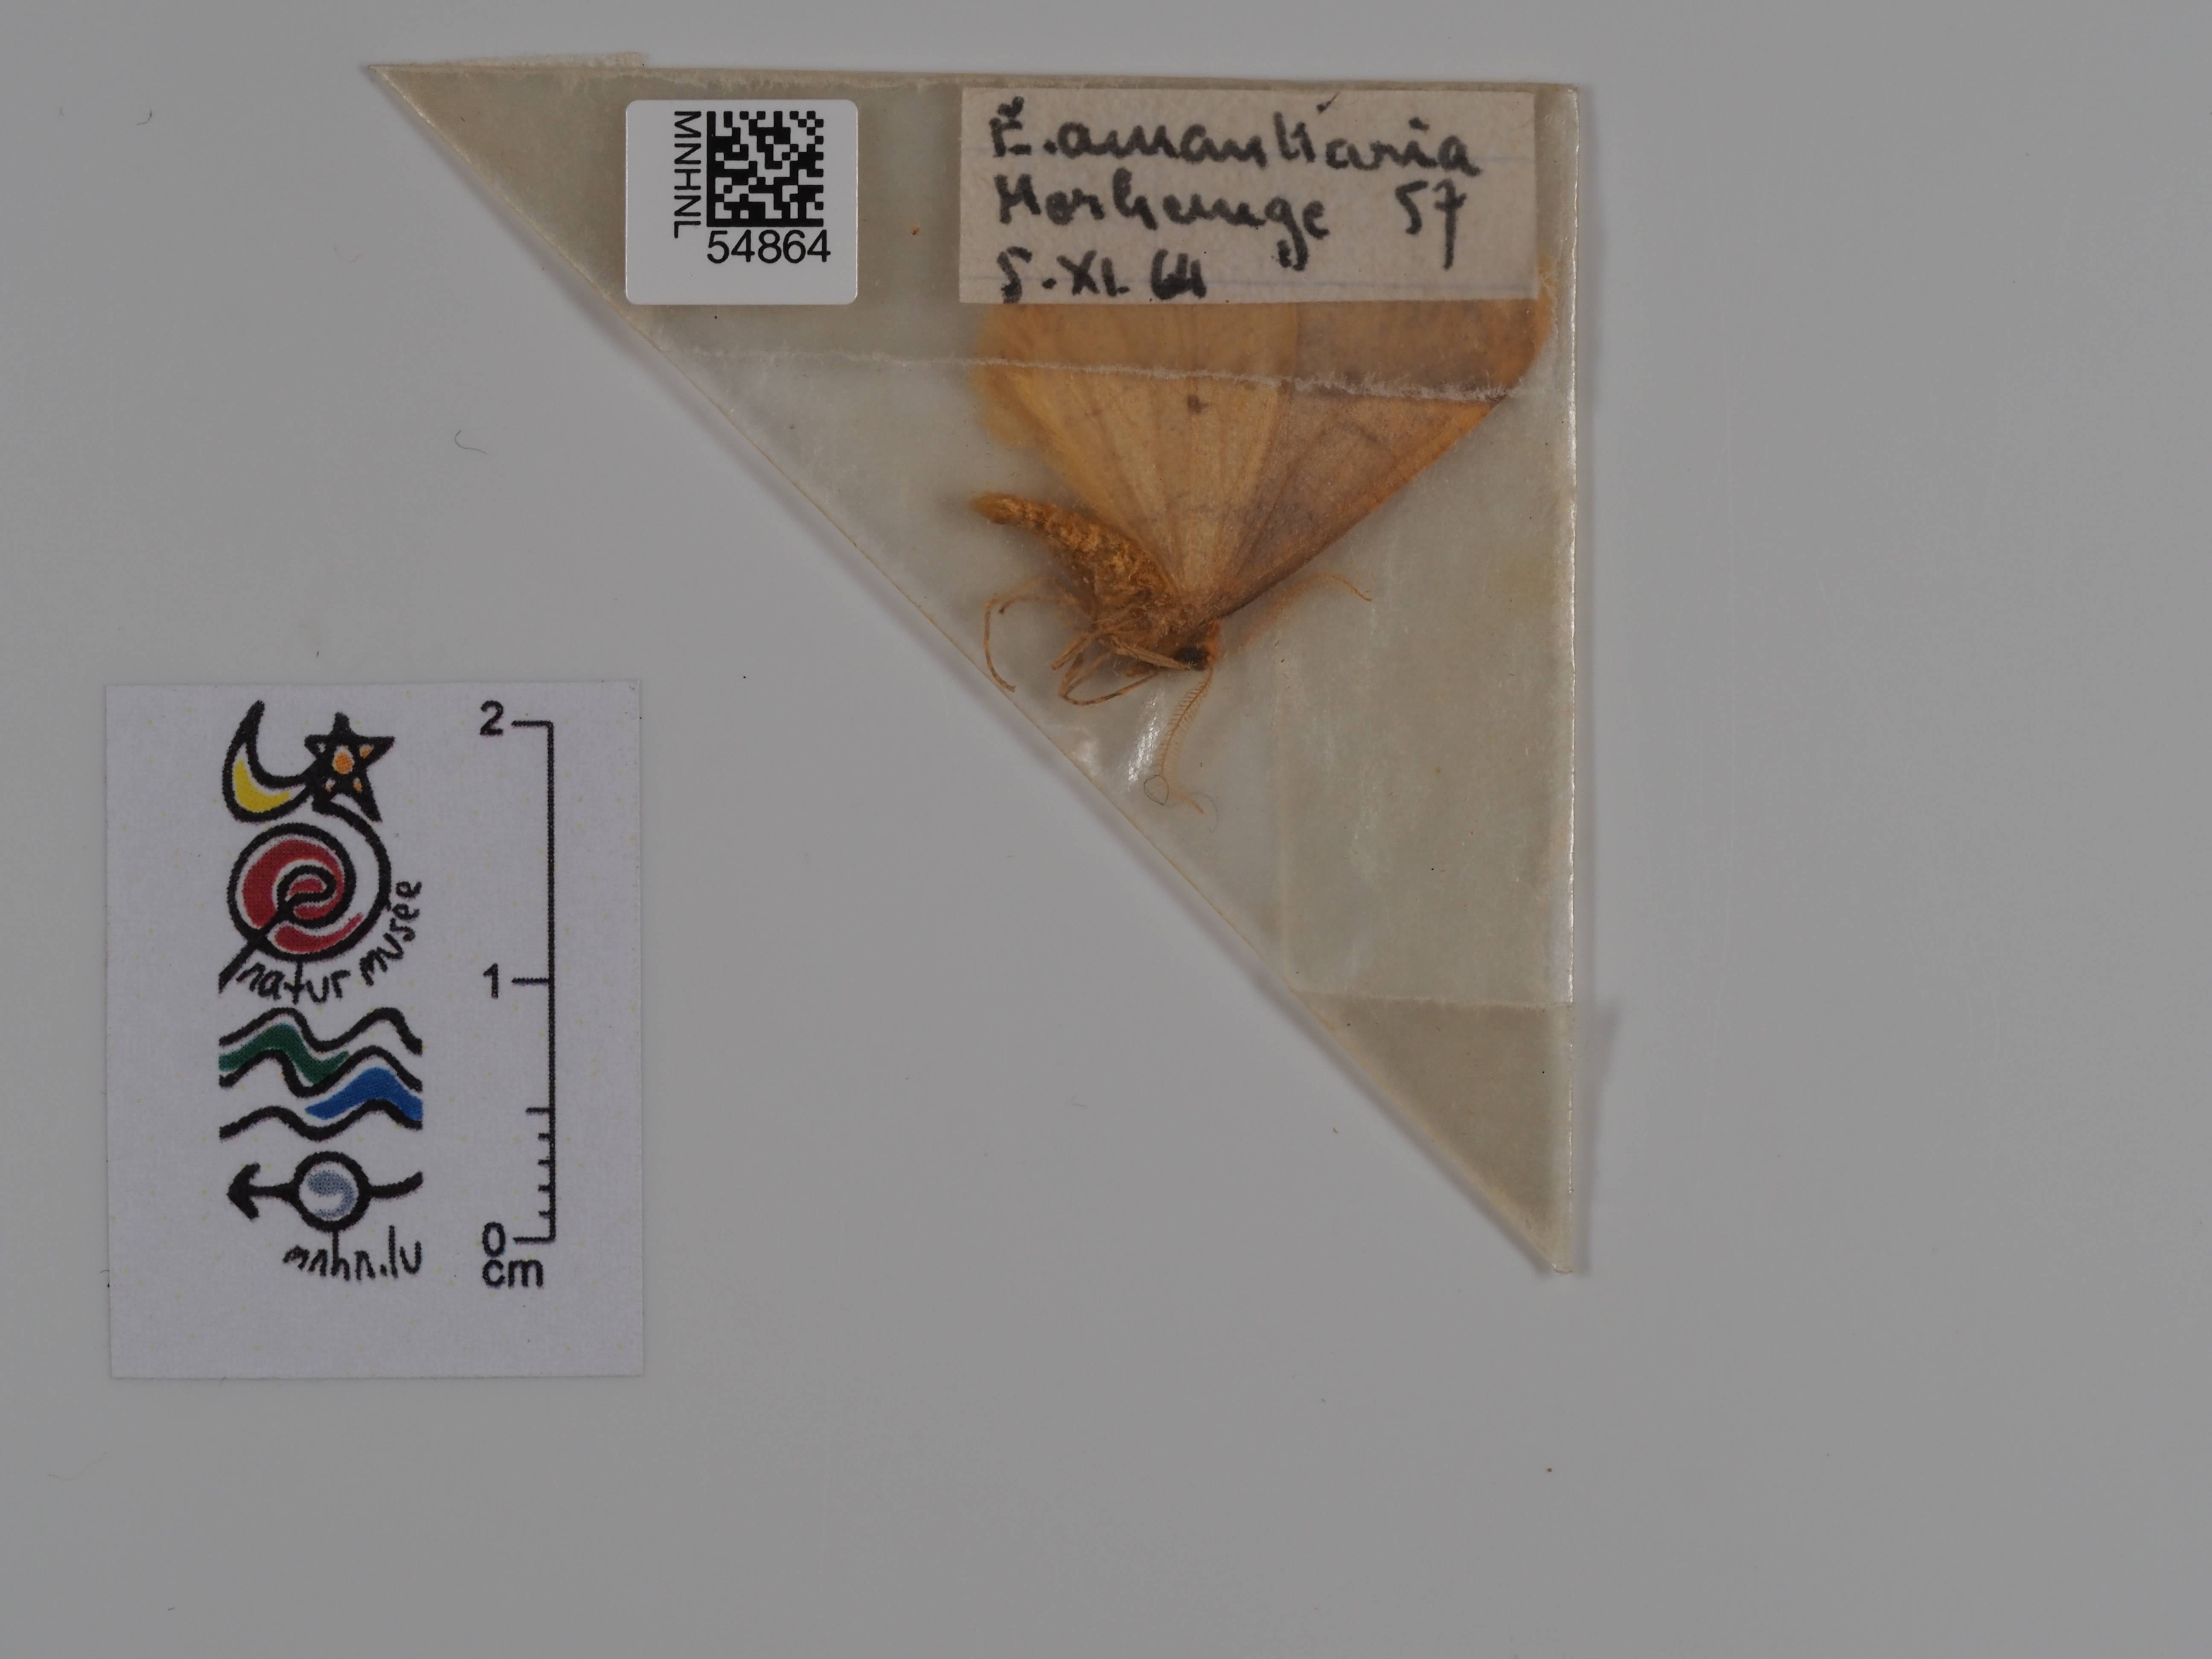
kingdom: Animalia
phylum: Arthropoda
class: Insecta
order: Lepidoptera
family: Geometridae
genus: Erannis
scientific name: Erannis
